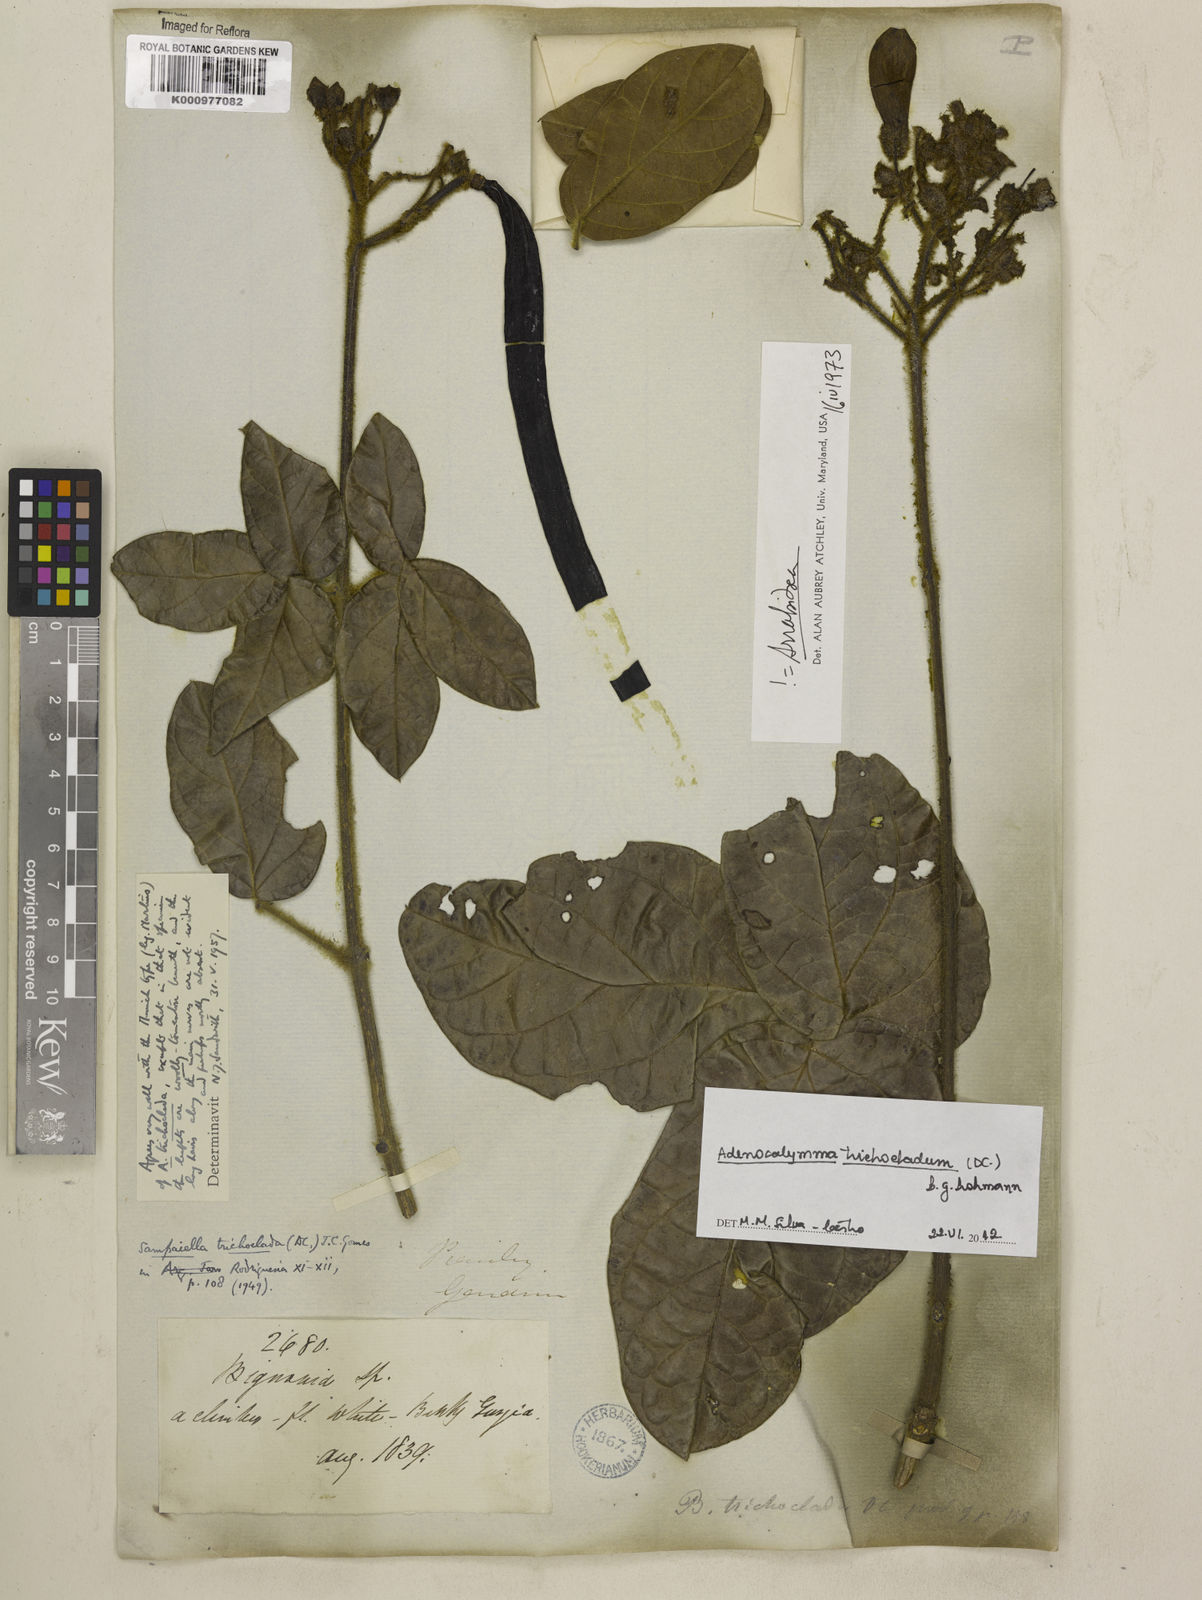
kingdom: Plantae
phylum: Tracheophyta
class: Magnoliopsida
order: Lamiales
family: Bignoniaceae
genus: Fridericia
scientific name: Fridericia trichoclada
